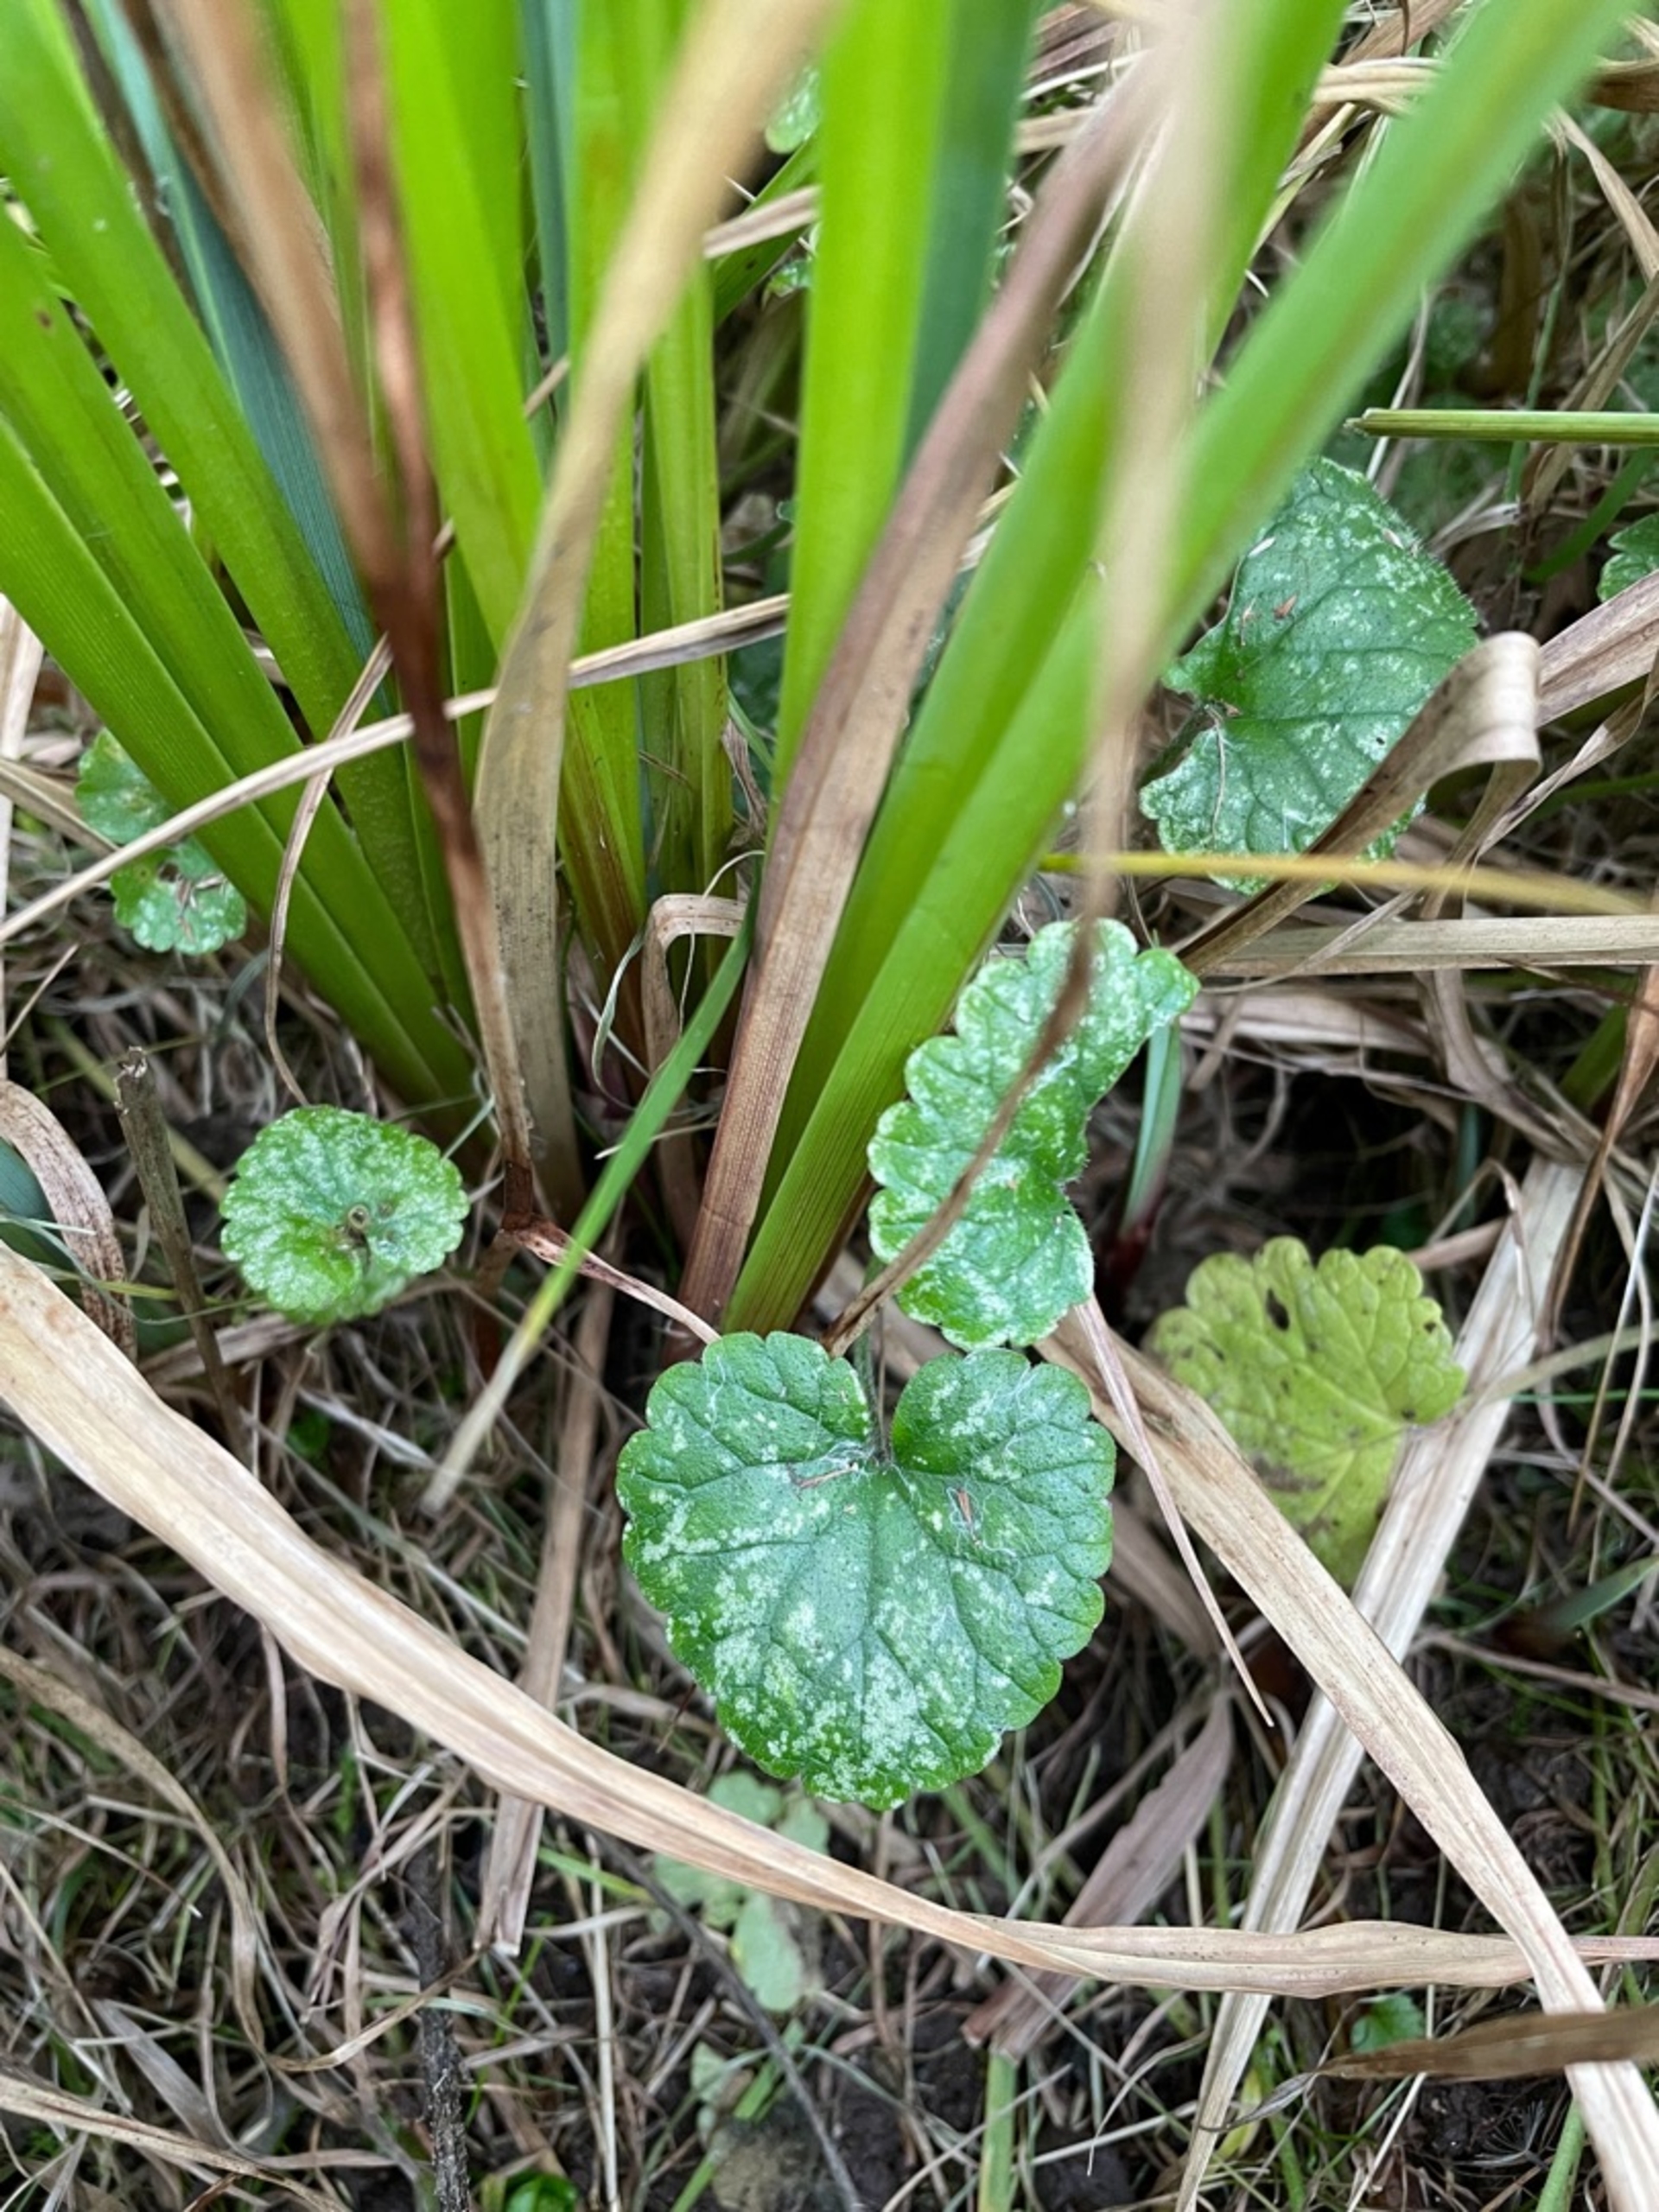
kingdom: Plantae
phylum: Tracheophyta
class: Magnoliopsida
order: Lamiales
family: Lamiaceae
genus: Glechoma
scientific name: Glechoma hederacea
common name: Korsknap
